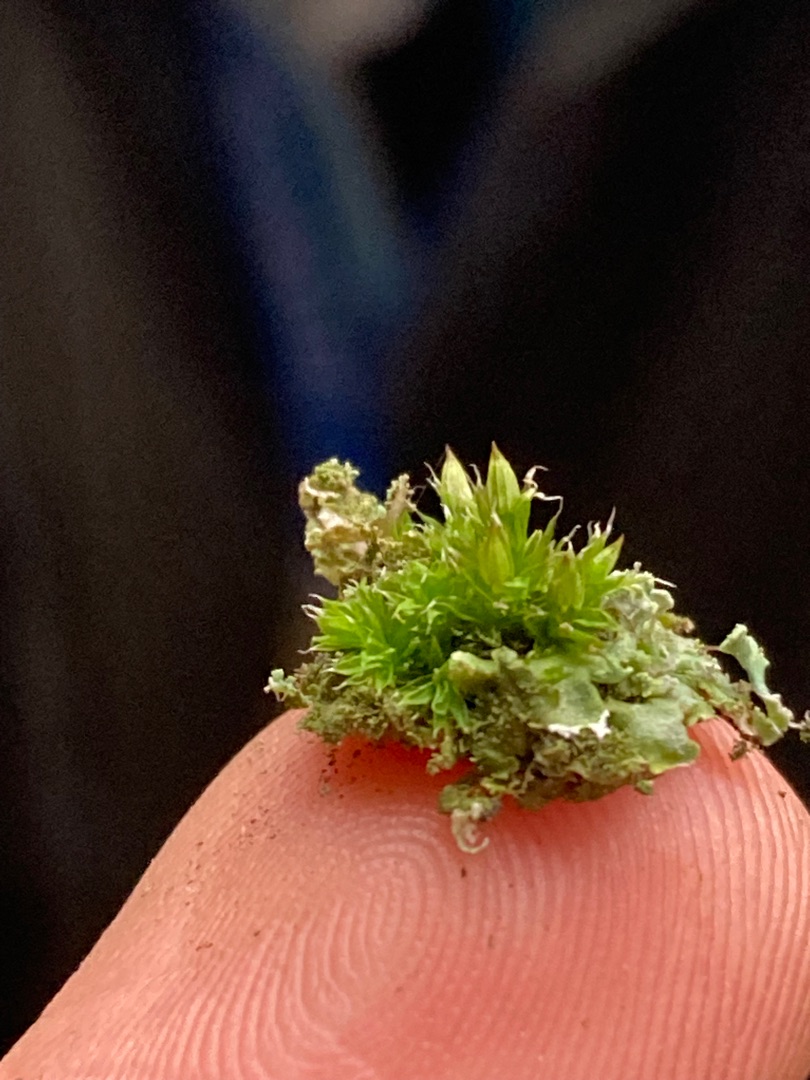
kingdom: Plantae
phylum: Bryophyta
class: Bryopsida
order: Orthotrichales
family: Orthotrichaceae
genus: Orthotrichum
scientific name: Orthotrichum diaphanum
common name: Hårspidset furehætte
